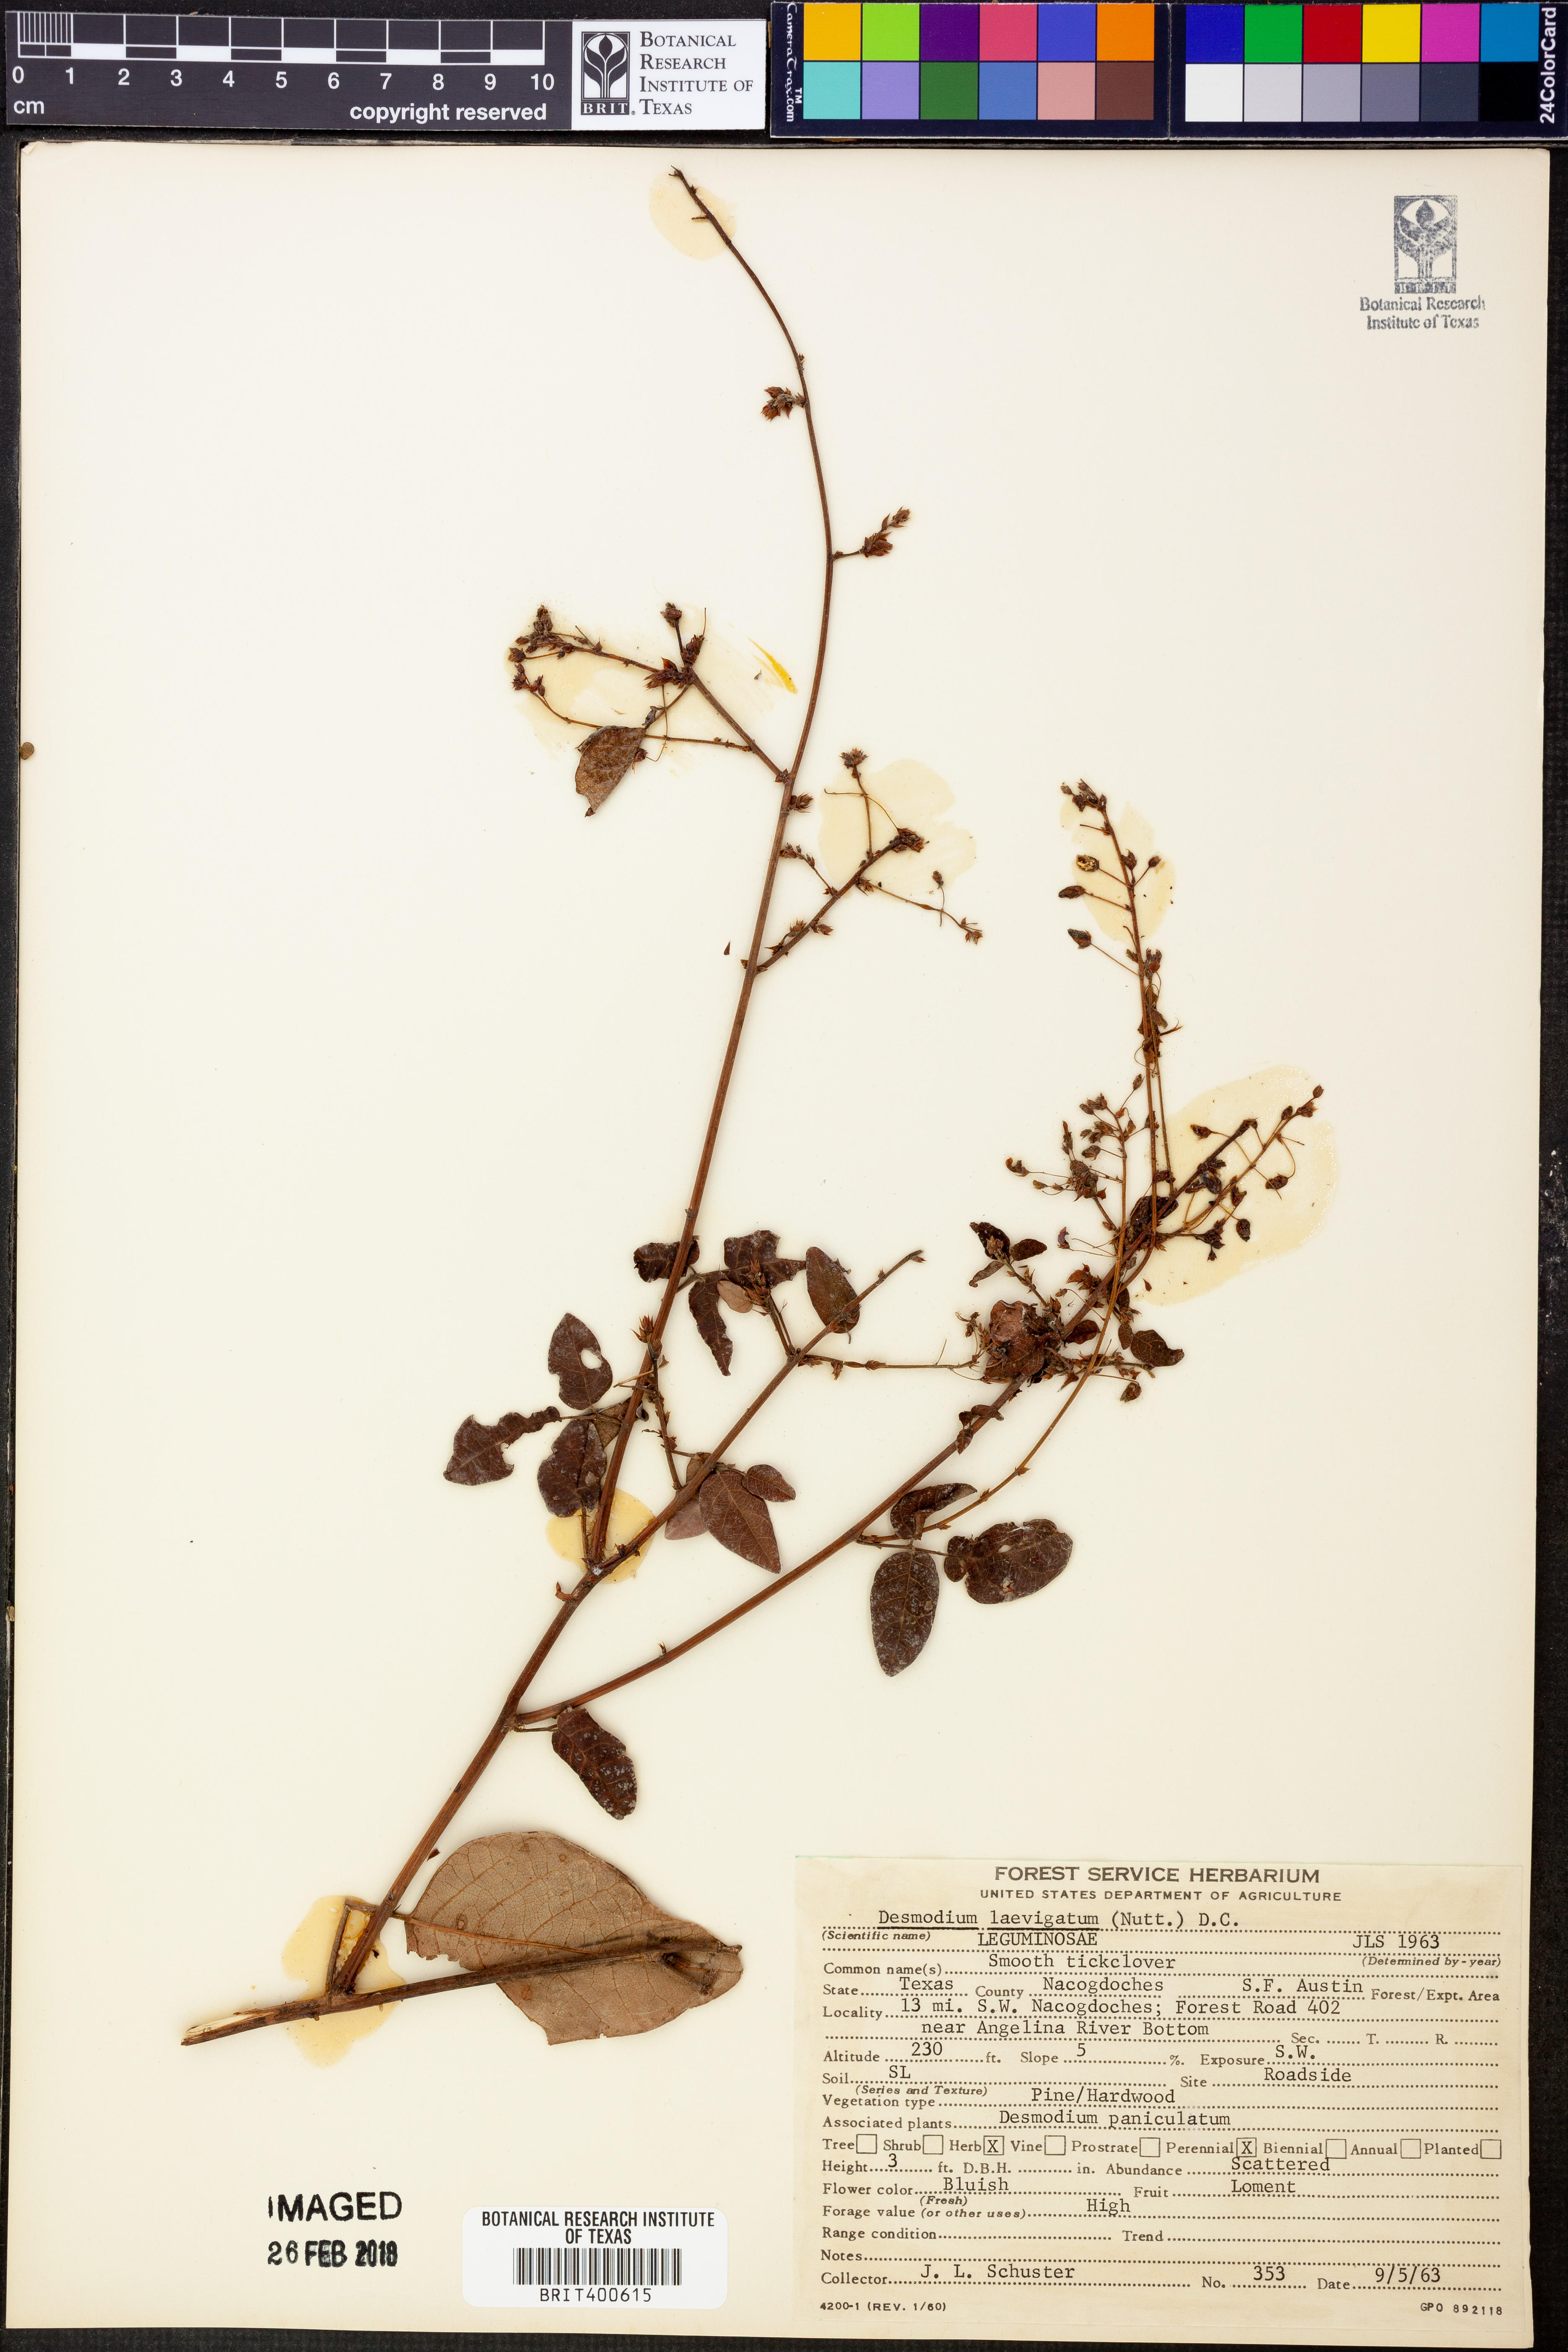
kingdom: Plantae
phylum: Tracheophyta
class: Magnoliopsida
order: Fabales
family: Fabaceae
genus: Desmodium
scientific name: Desmodium laevigatum
